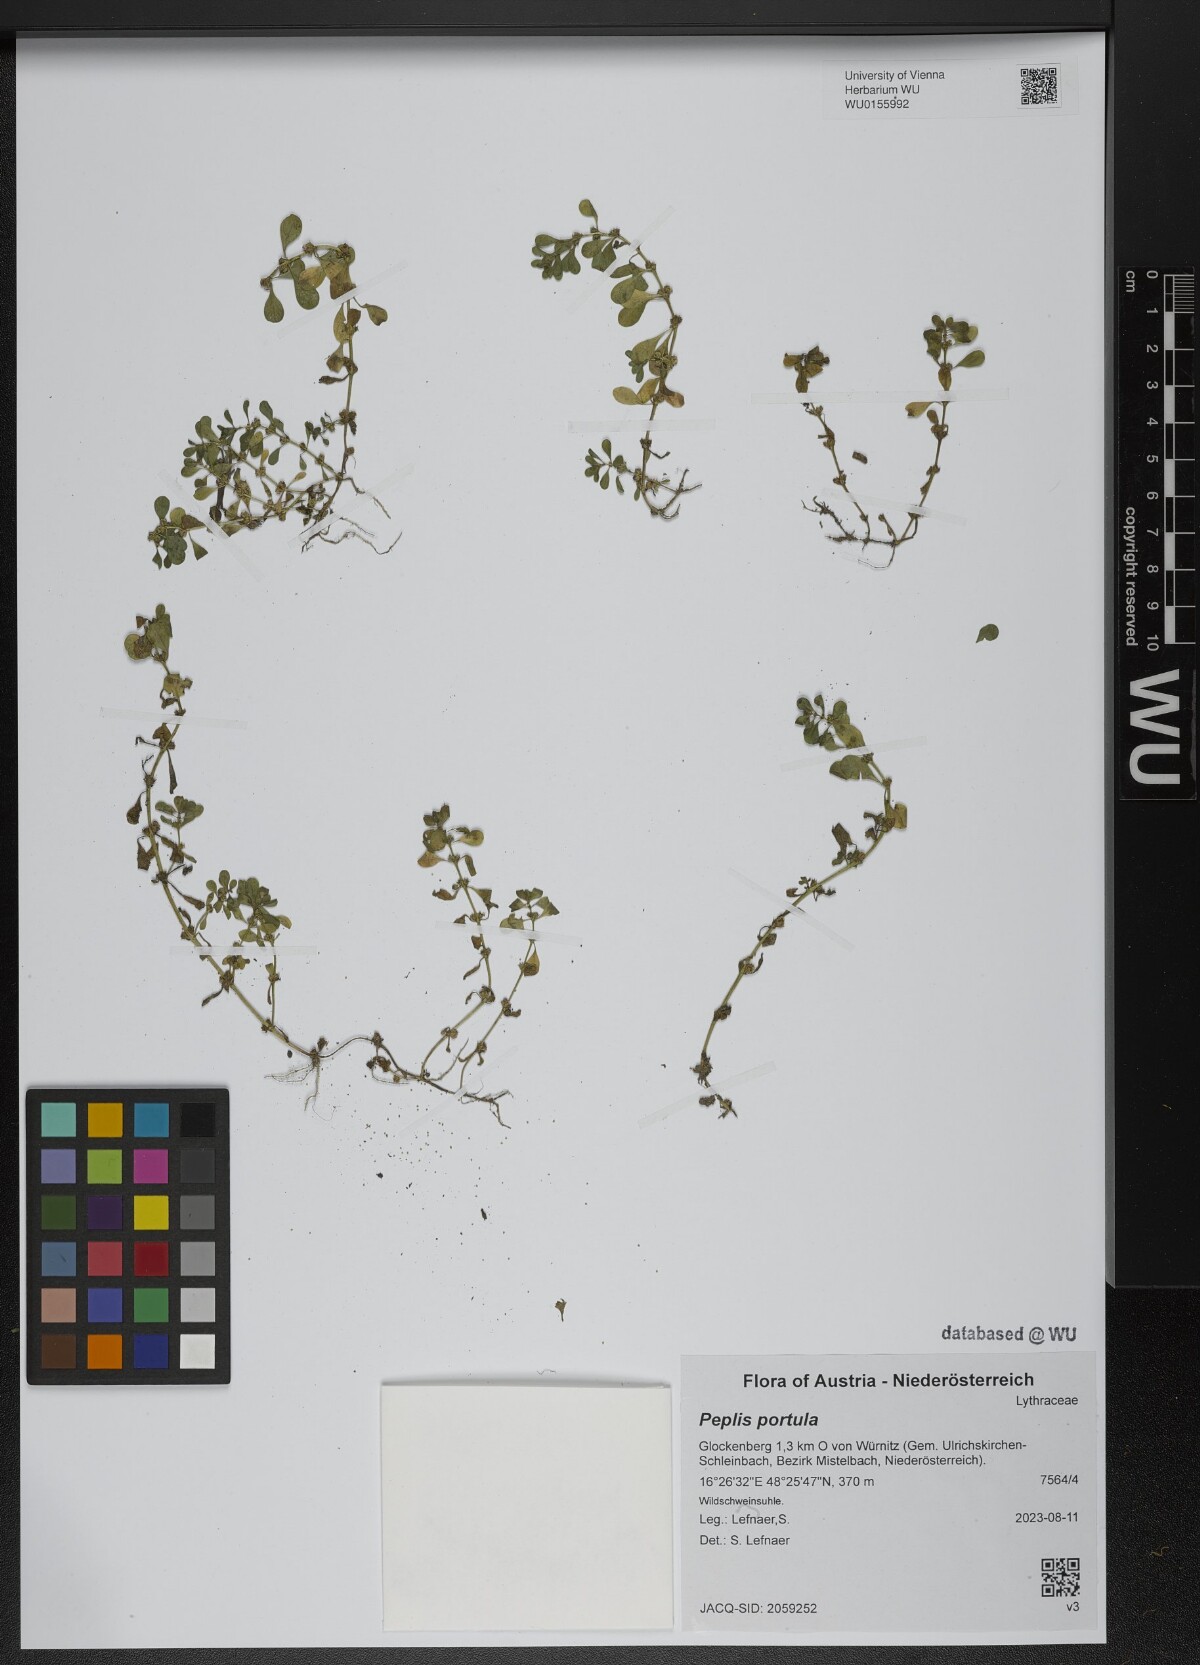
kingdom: Plantae
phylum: Tracheophyta
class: Magnoliopsida
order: Myrtales
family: Lythraceae
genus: Lythrum
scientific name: Lythrum portula
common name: Water purslane
